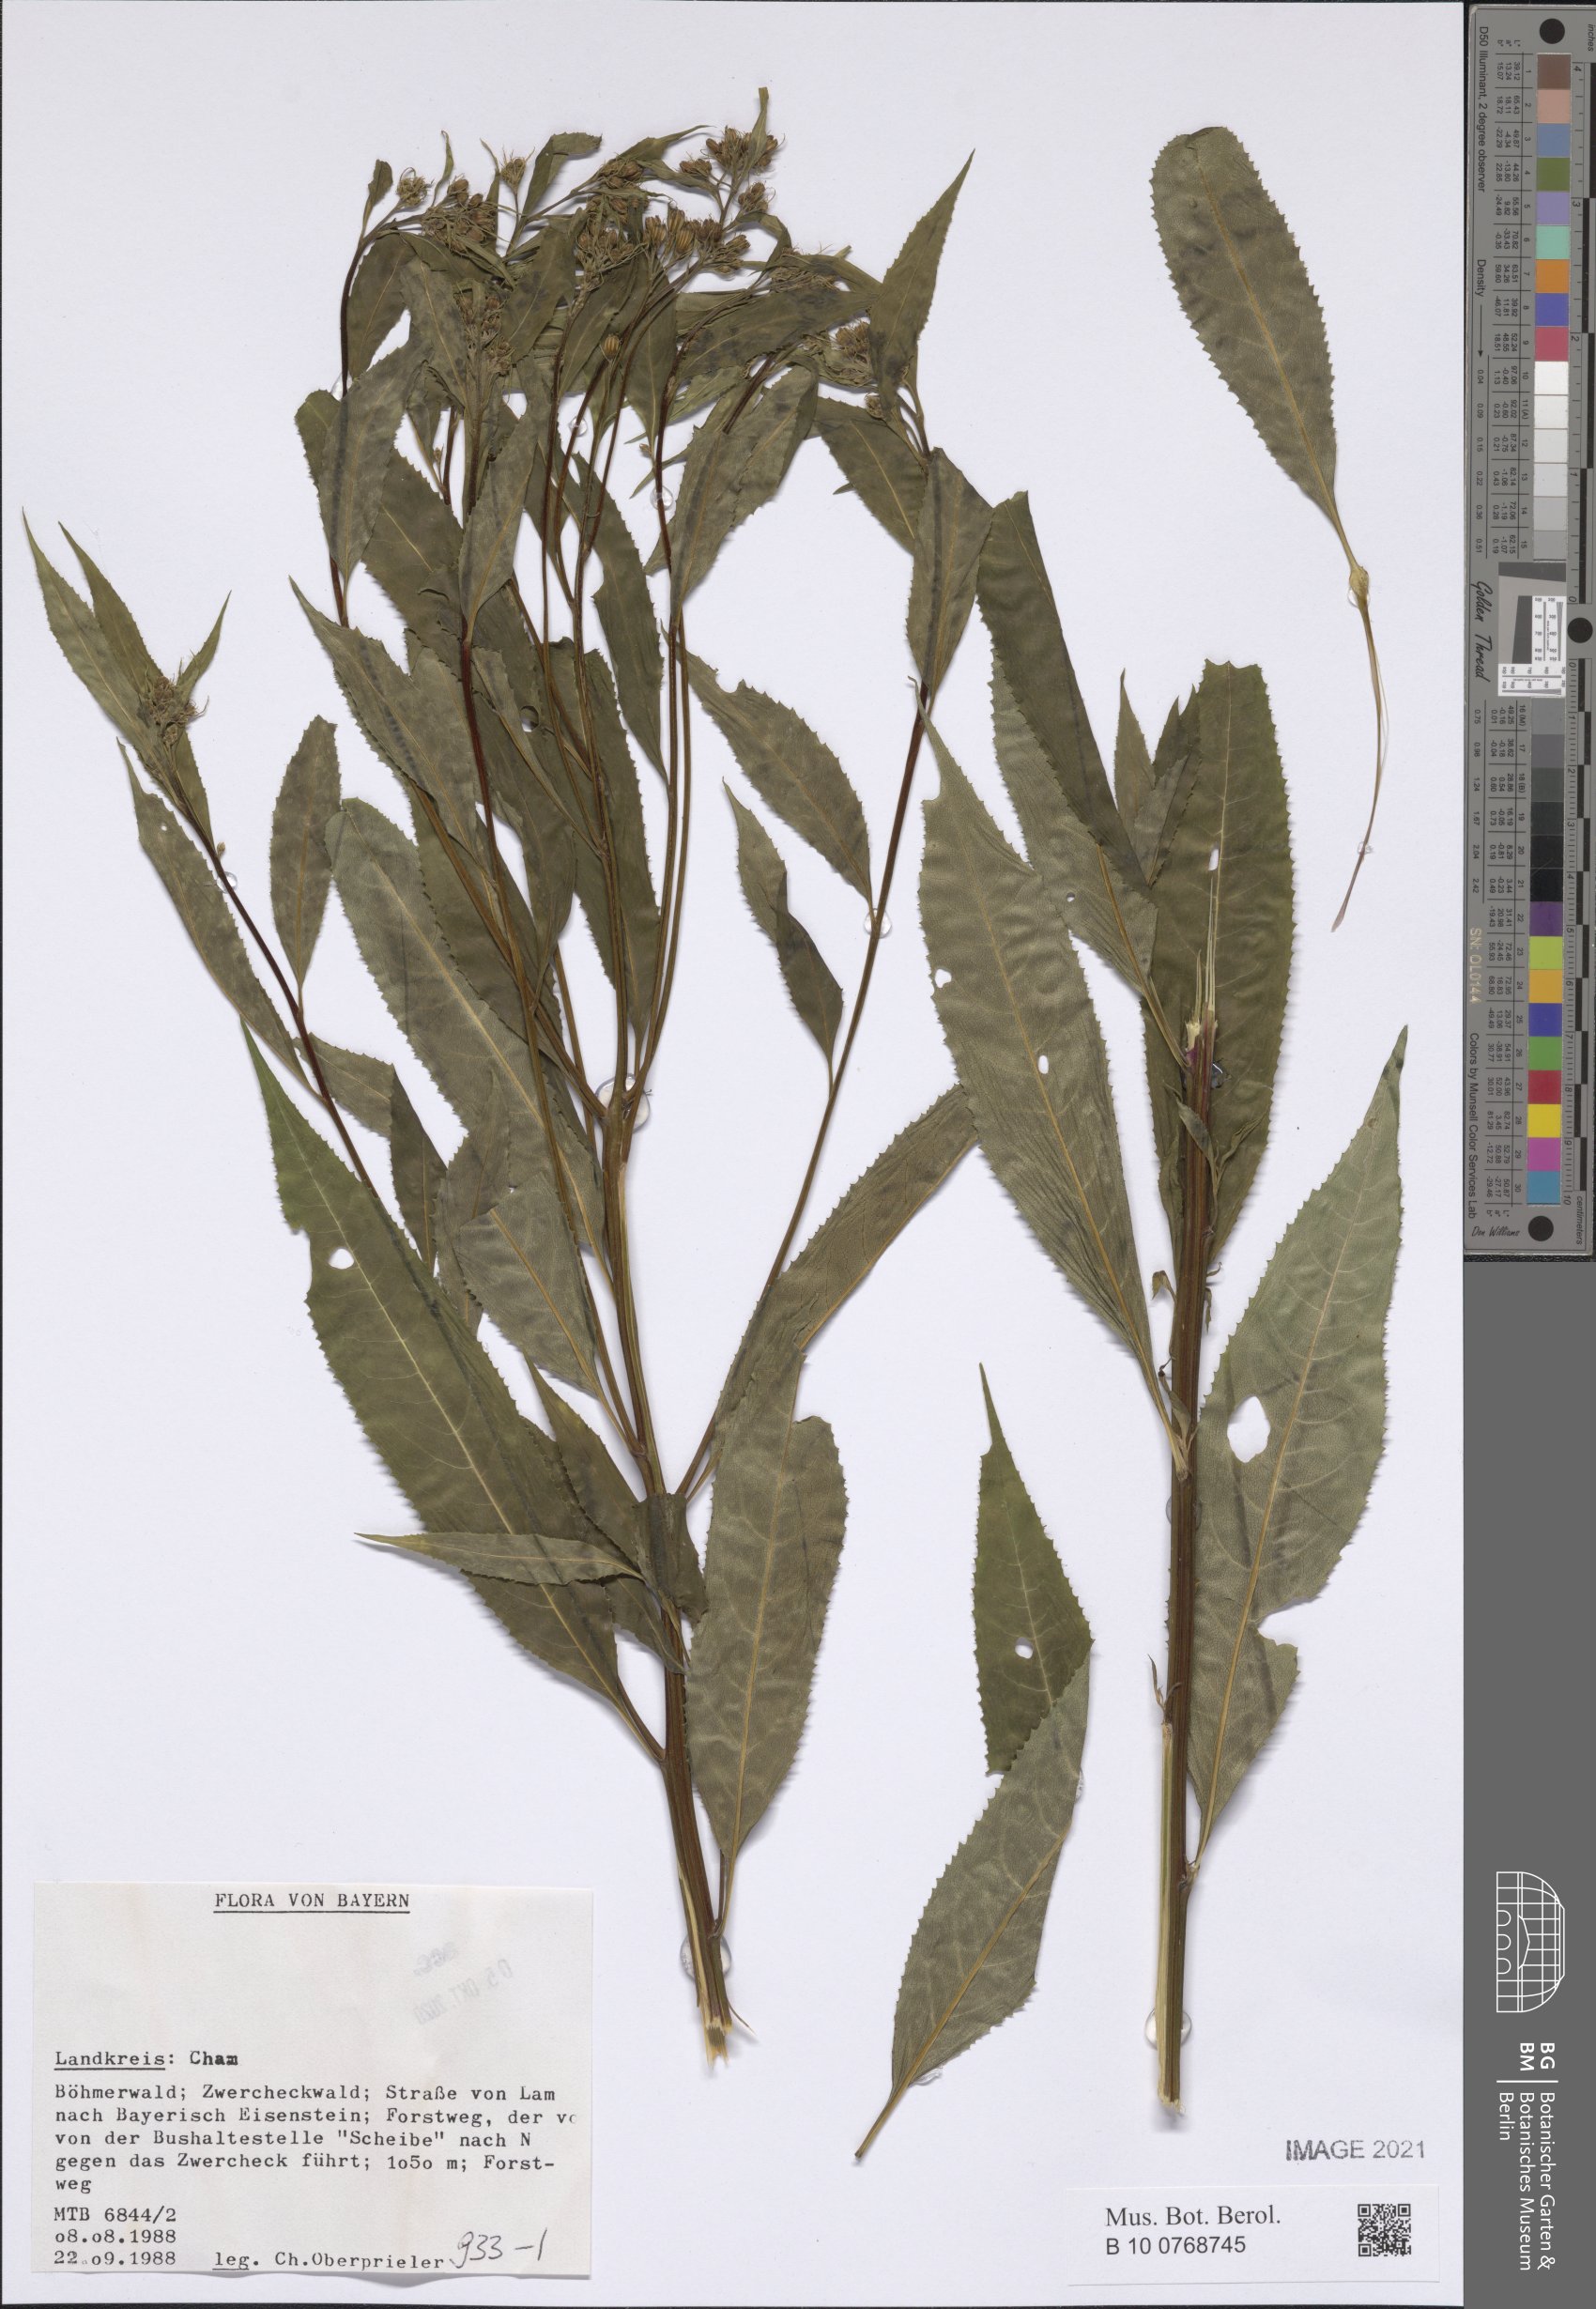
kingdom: Plantae
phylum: Tracheophyta
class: Magnoliopsida
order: Asterales
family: Asteraceae
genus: Senecio
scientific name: Senecio
